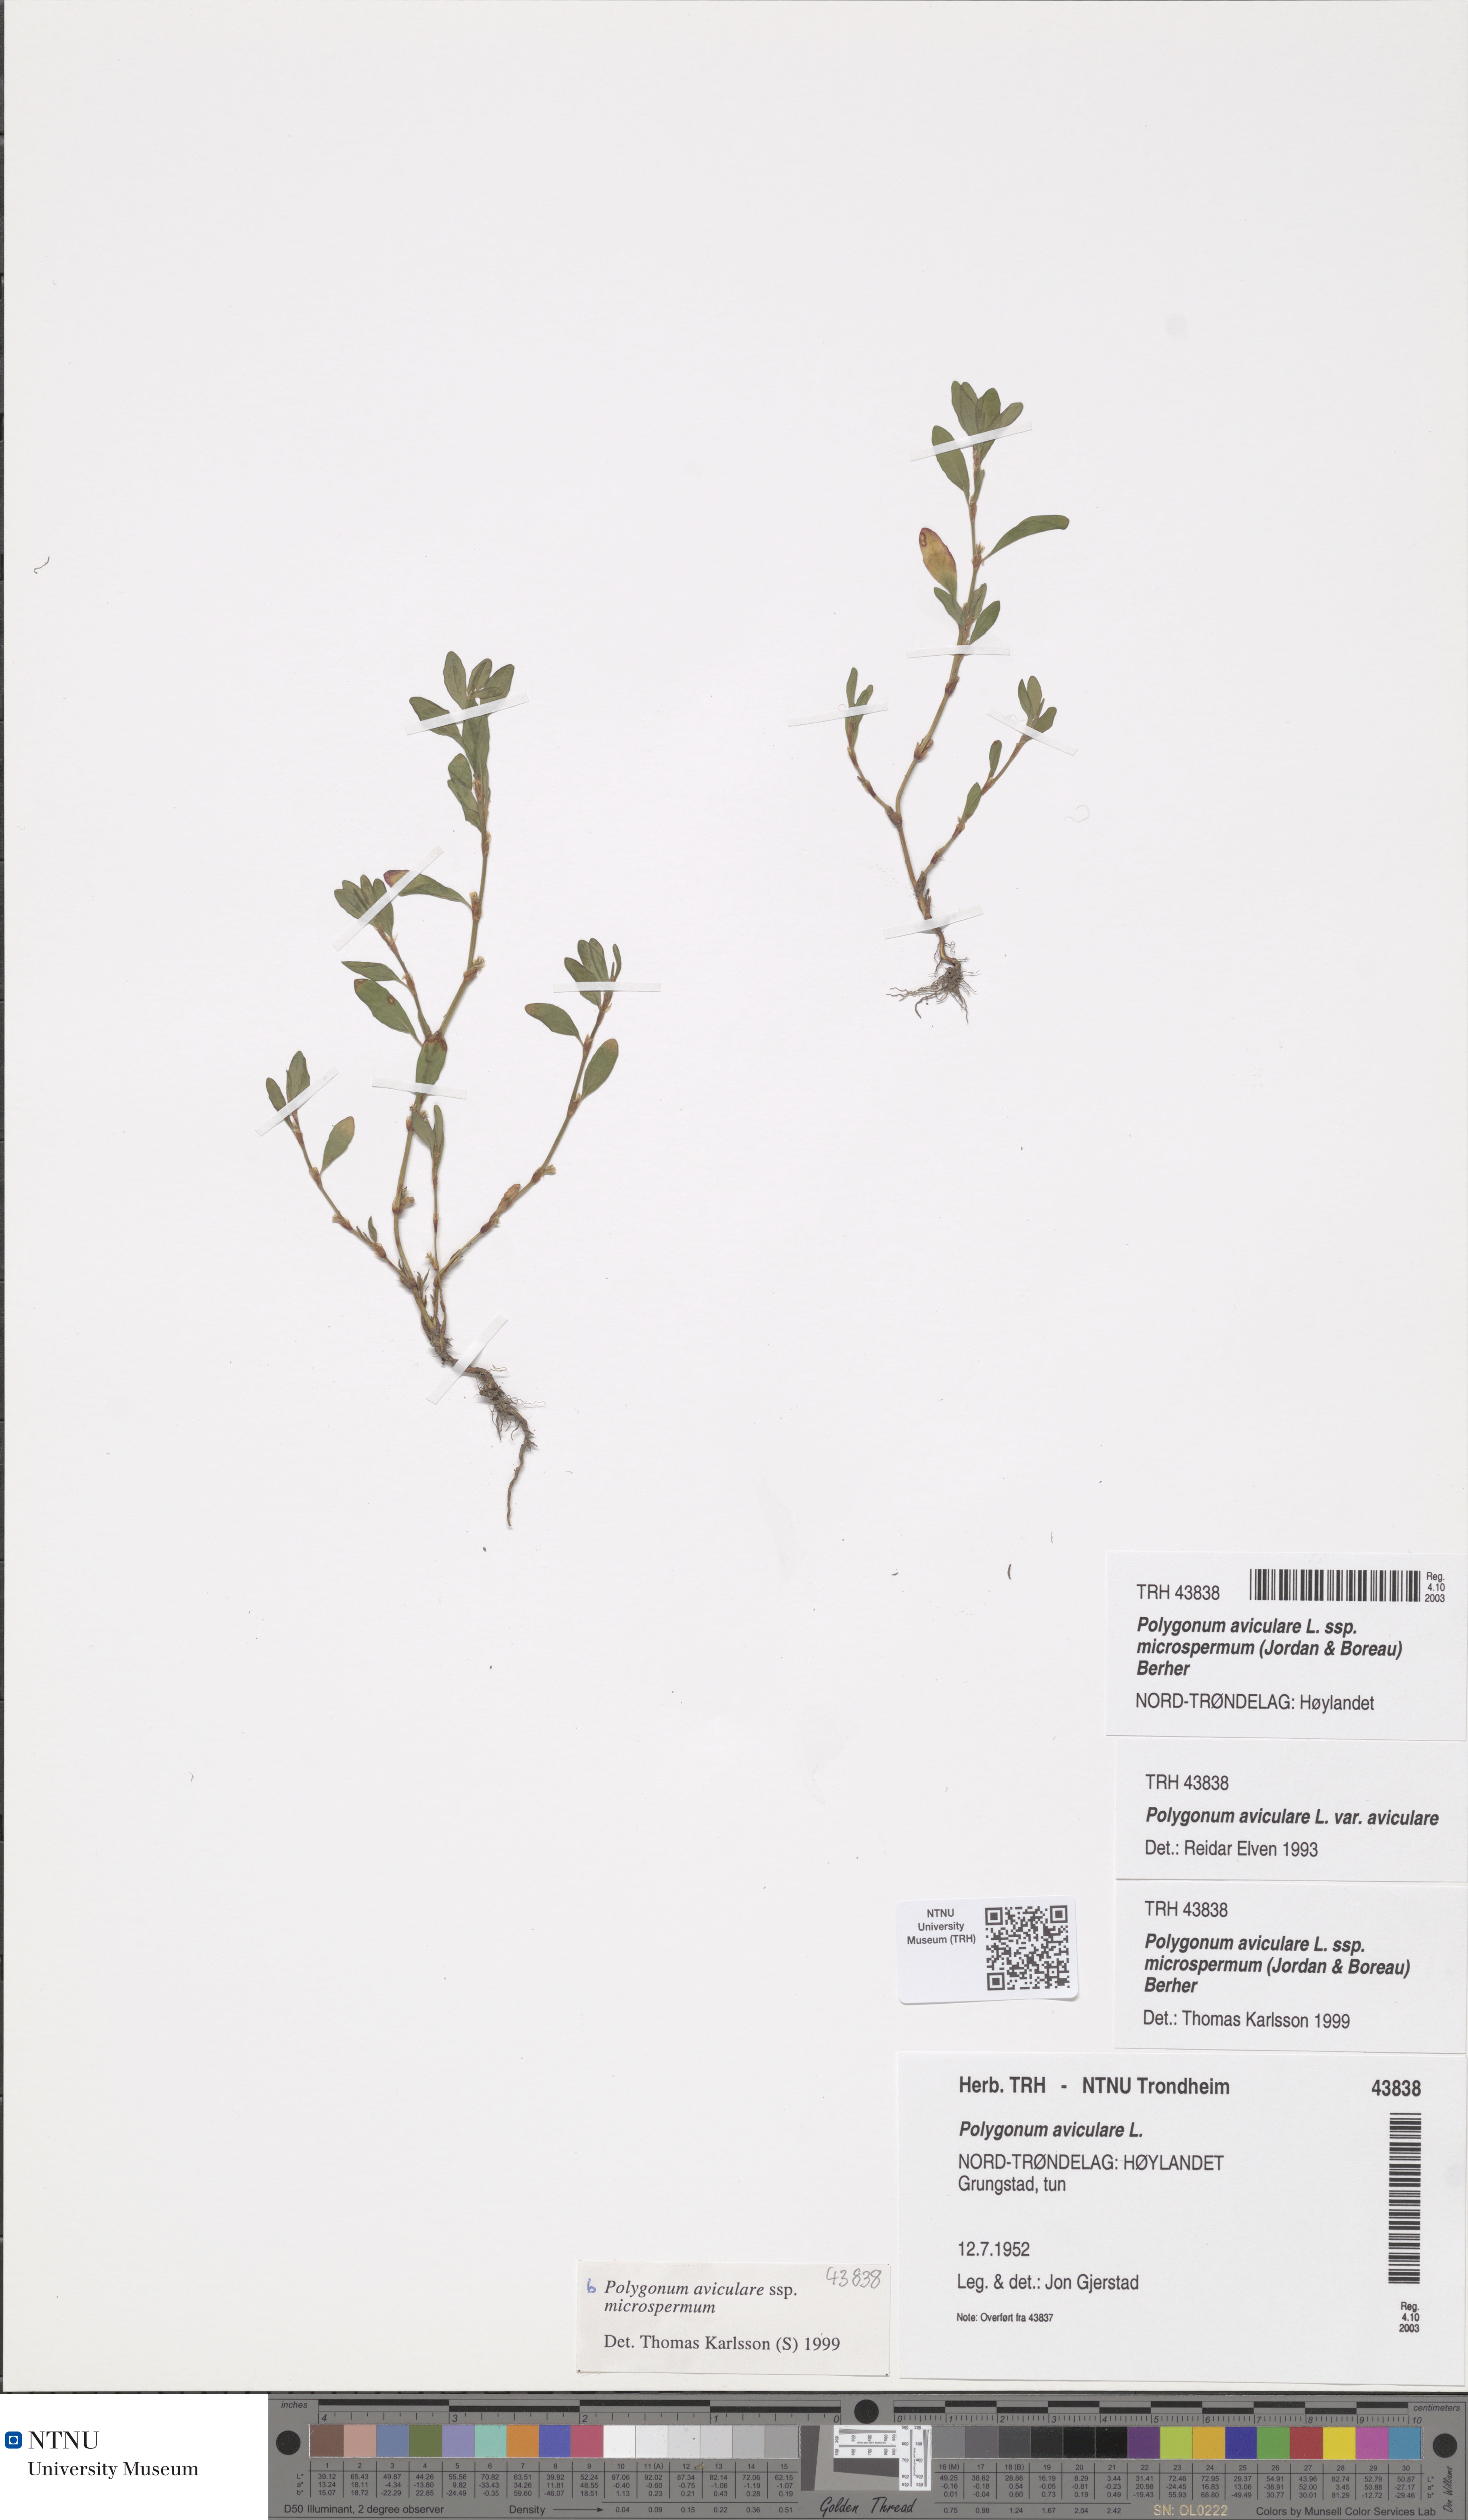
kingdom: Plantae
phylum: Tracheophyta
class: Magnoliopsida
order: Caryophyllales
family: Polygonaceae
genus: Polygonum
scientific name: Polygonum arenastrum
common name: Equal-leaved knotgrass
